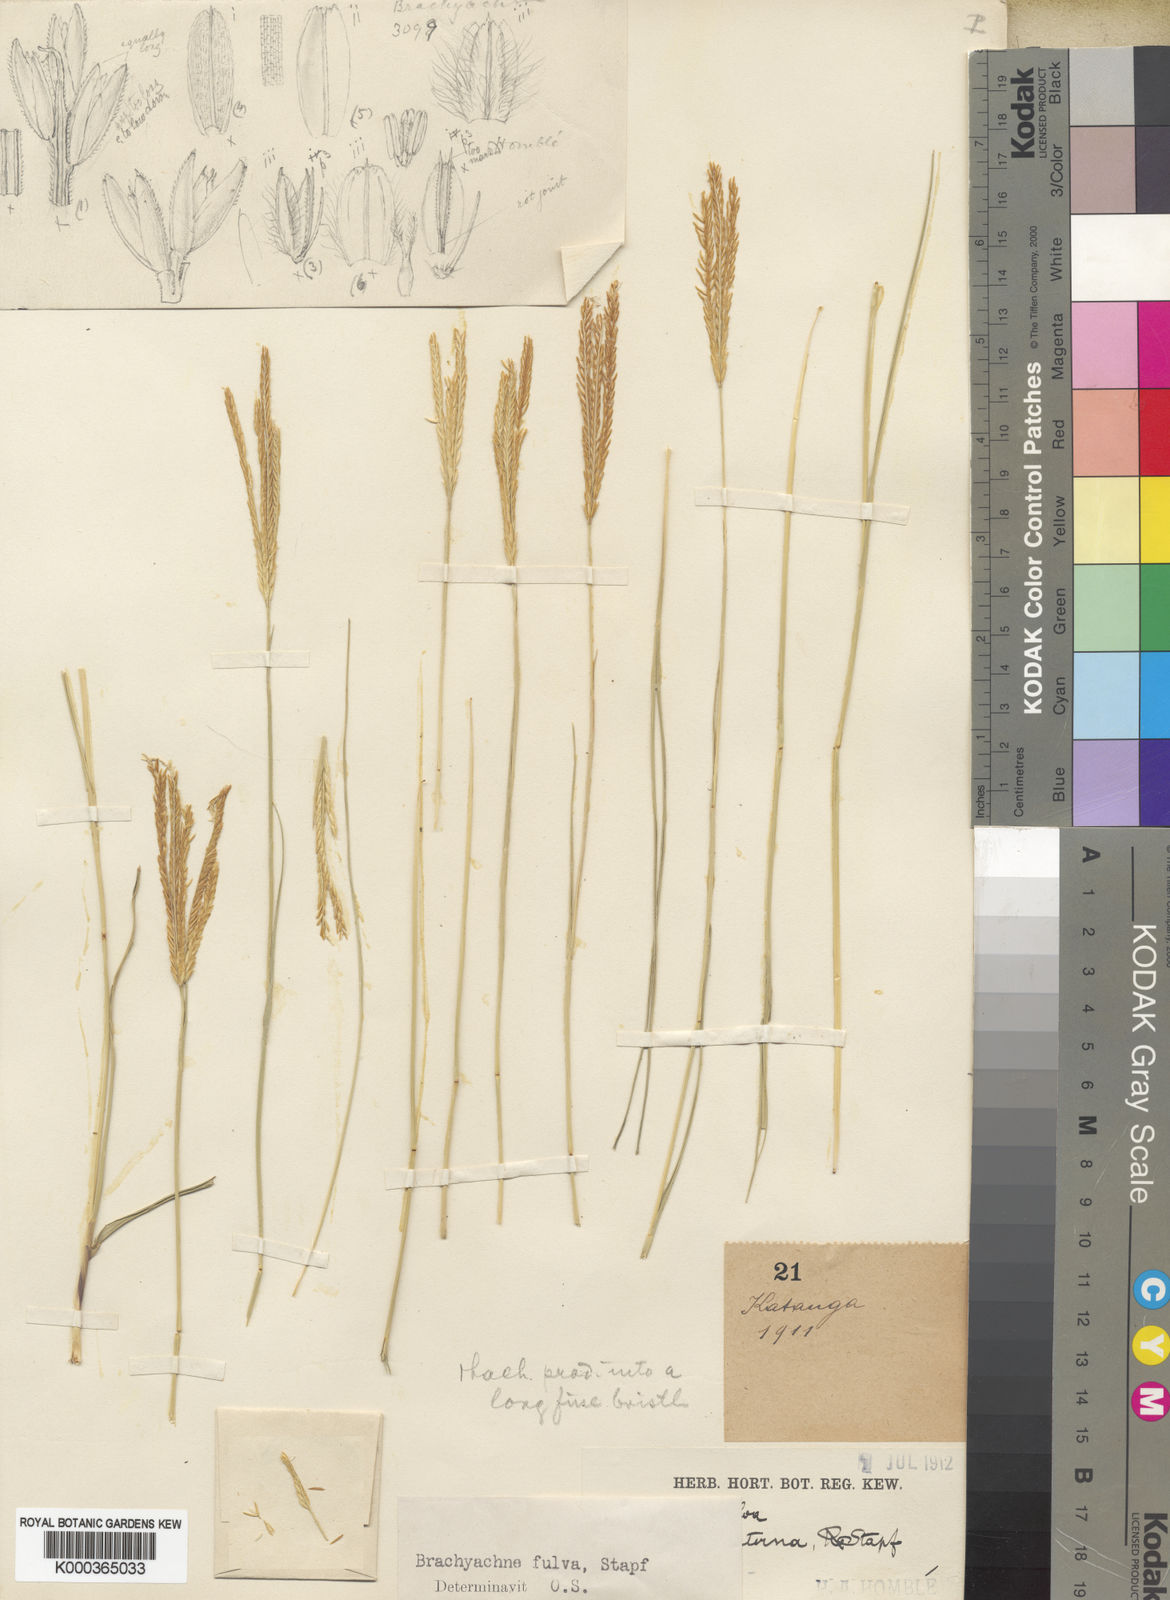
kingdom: Plantae
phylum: Tracheophyta
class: Liliopsida
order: Poales
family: Poaceae
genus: Micrachne
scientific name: Micrachne fulva
